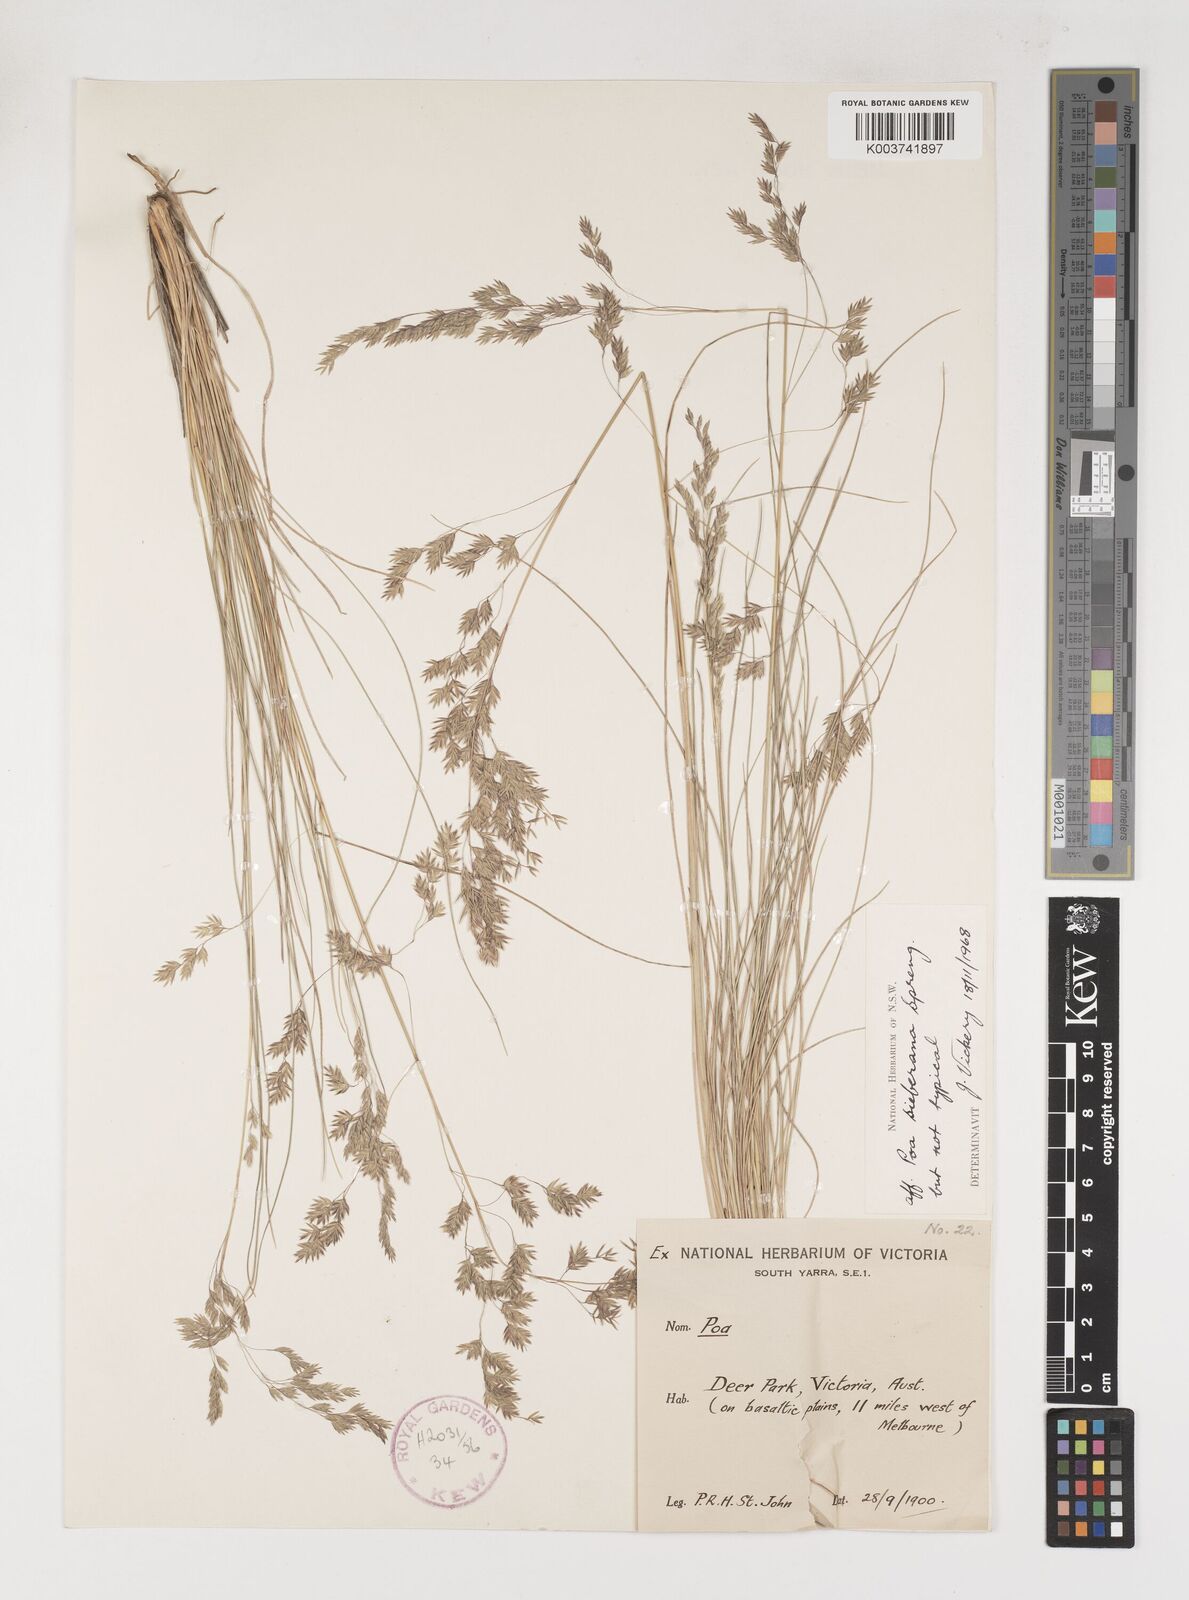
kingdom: Plantae
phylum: Tracheophyta
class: Liliopsida
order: Poales
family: Poaceae
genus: Poa
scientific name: Poa sieberiana
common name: Tussock poa
